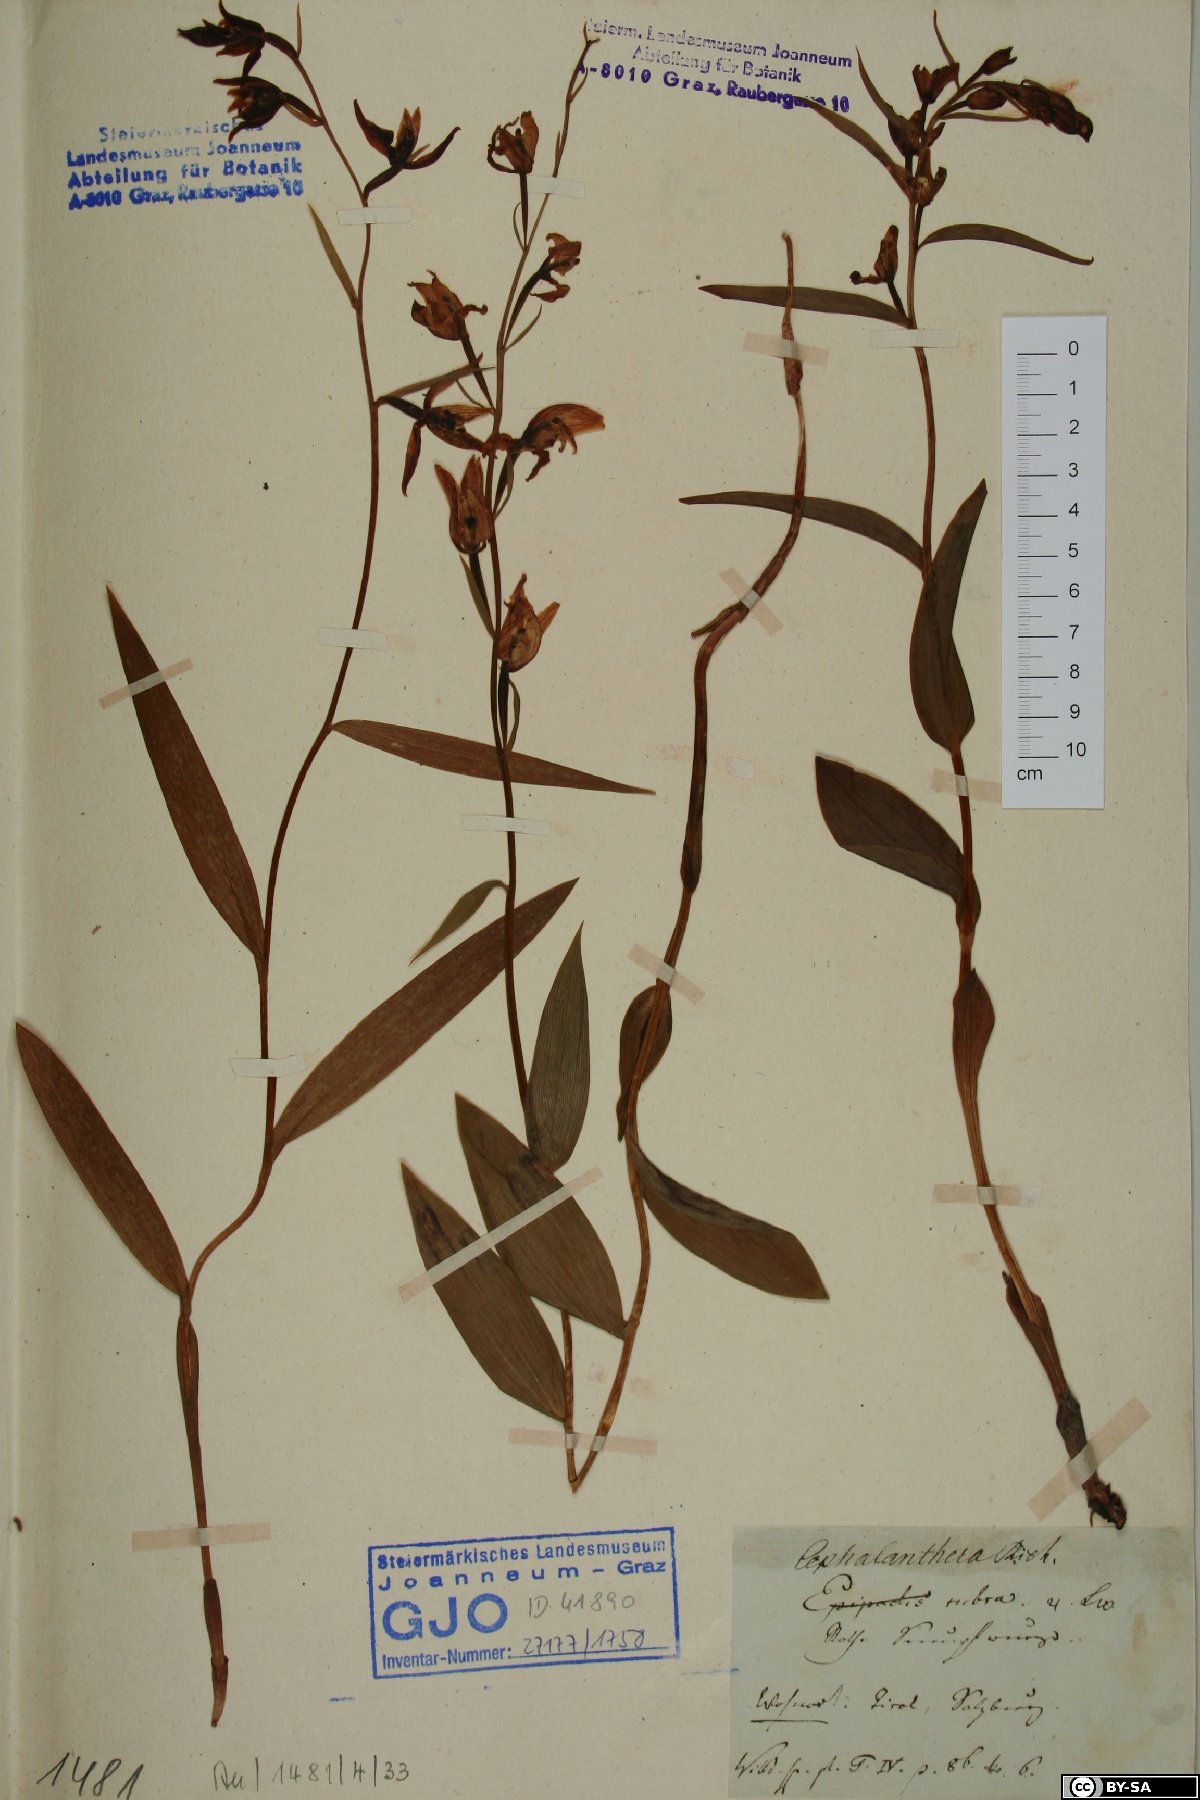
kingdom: Plantae
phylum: Tracheophyta
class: Liliopsida
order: Asparagales
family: Orchidaceae
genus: Cephalanthera
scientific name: Cephalanthera rubra
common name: Red helleborine
